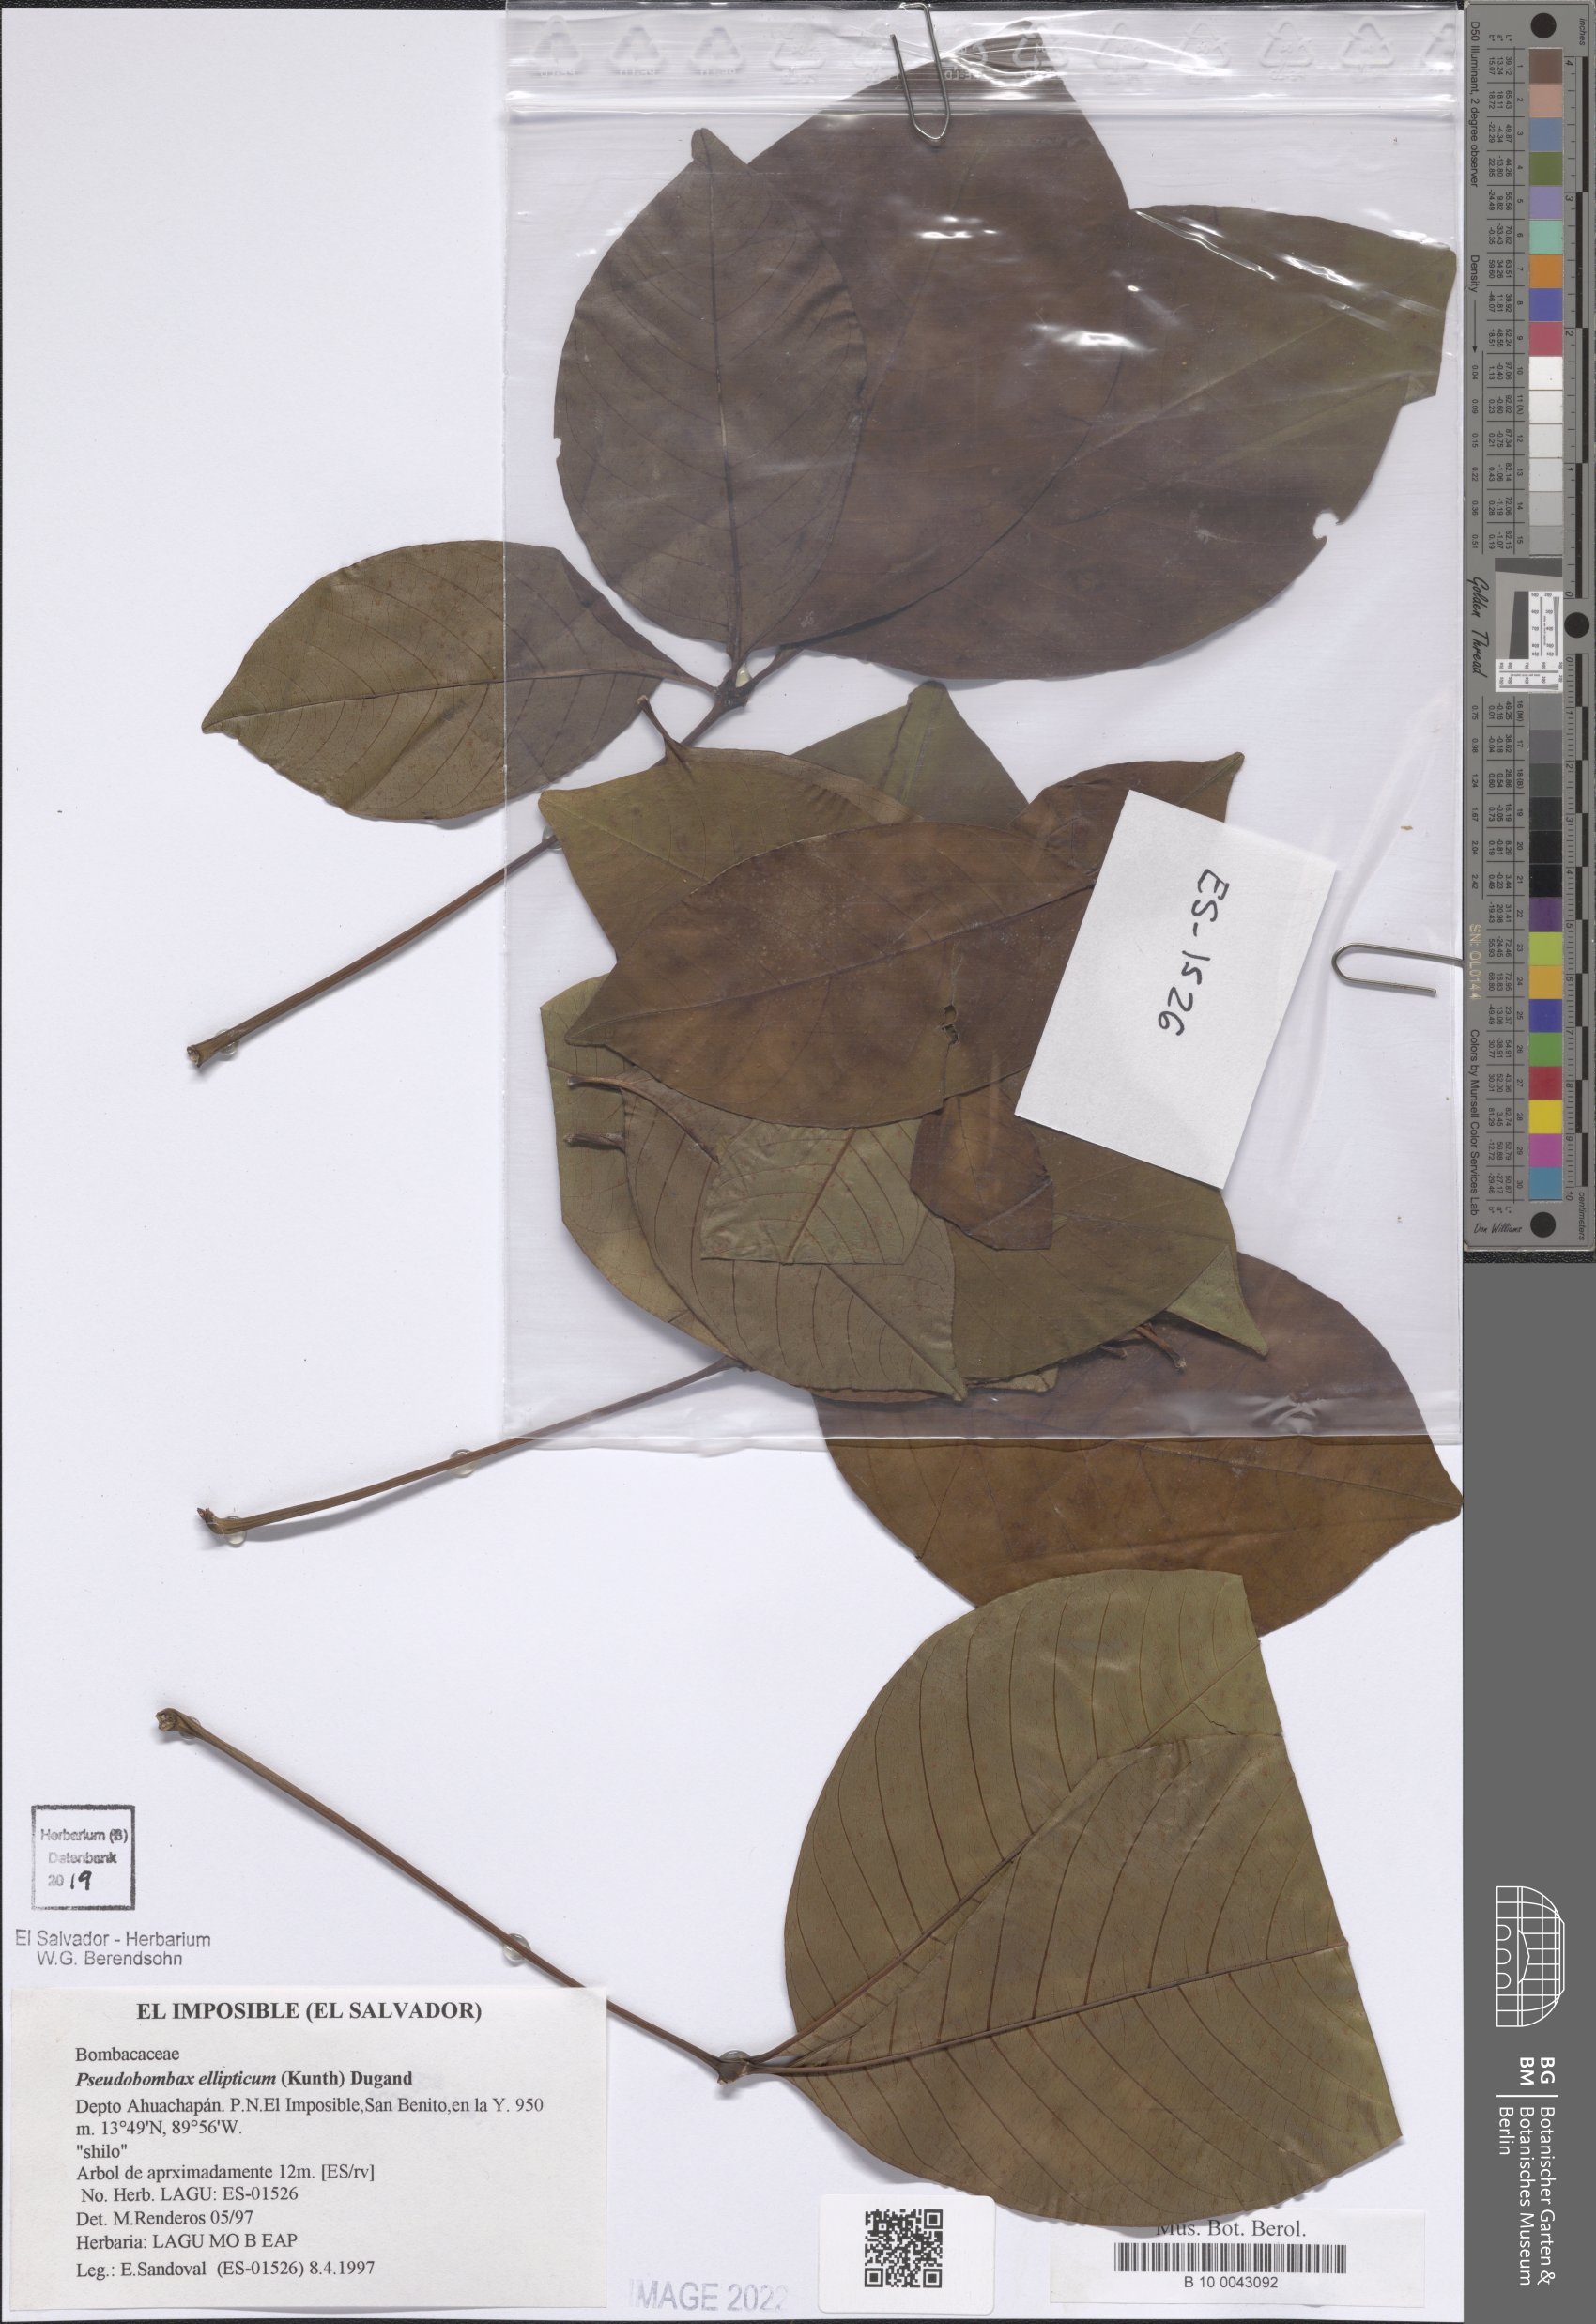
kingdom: Plantae
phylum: Tracheophyta
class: Magnoliopsida
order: Malvales
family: Malvaceae
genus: Pseudobombax
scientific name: Pseudobombax ellipticum
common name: Shaving-brush-tree
